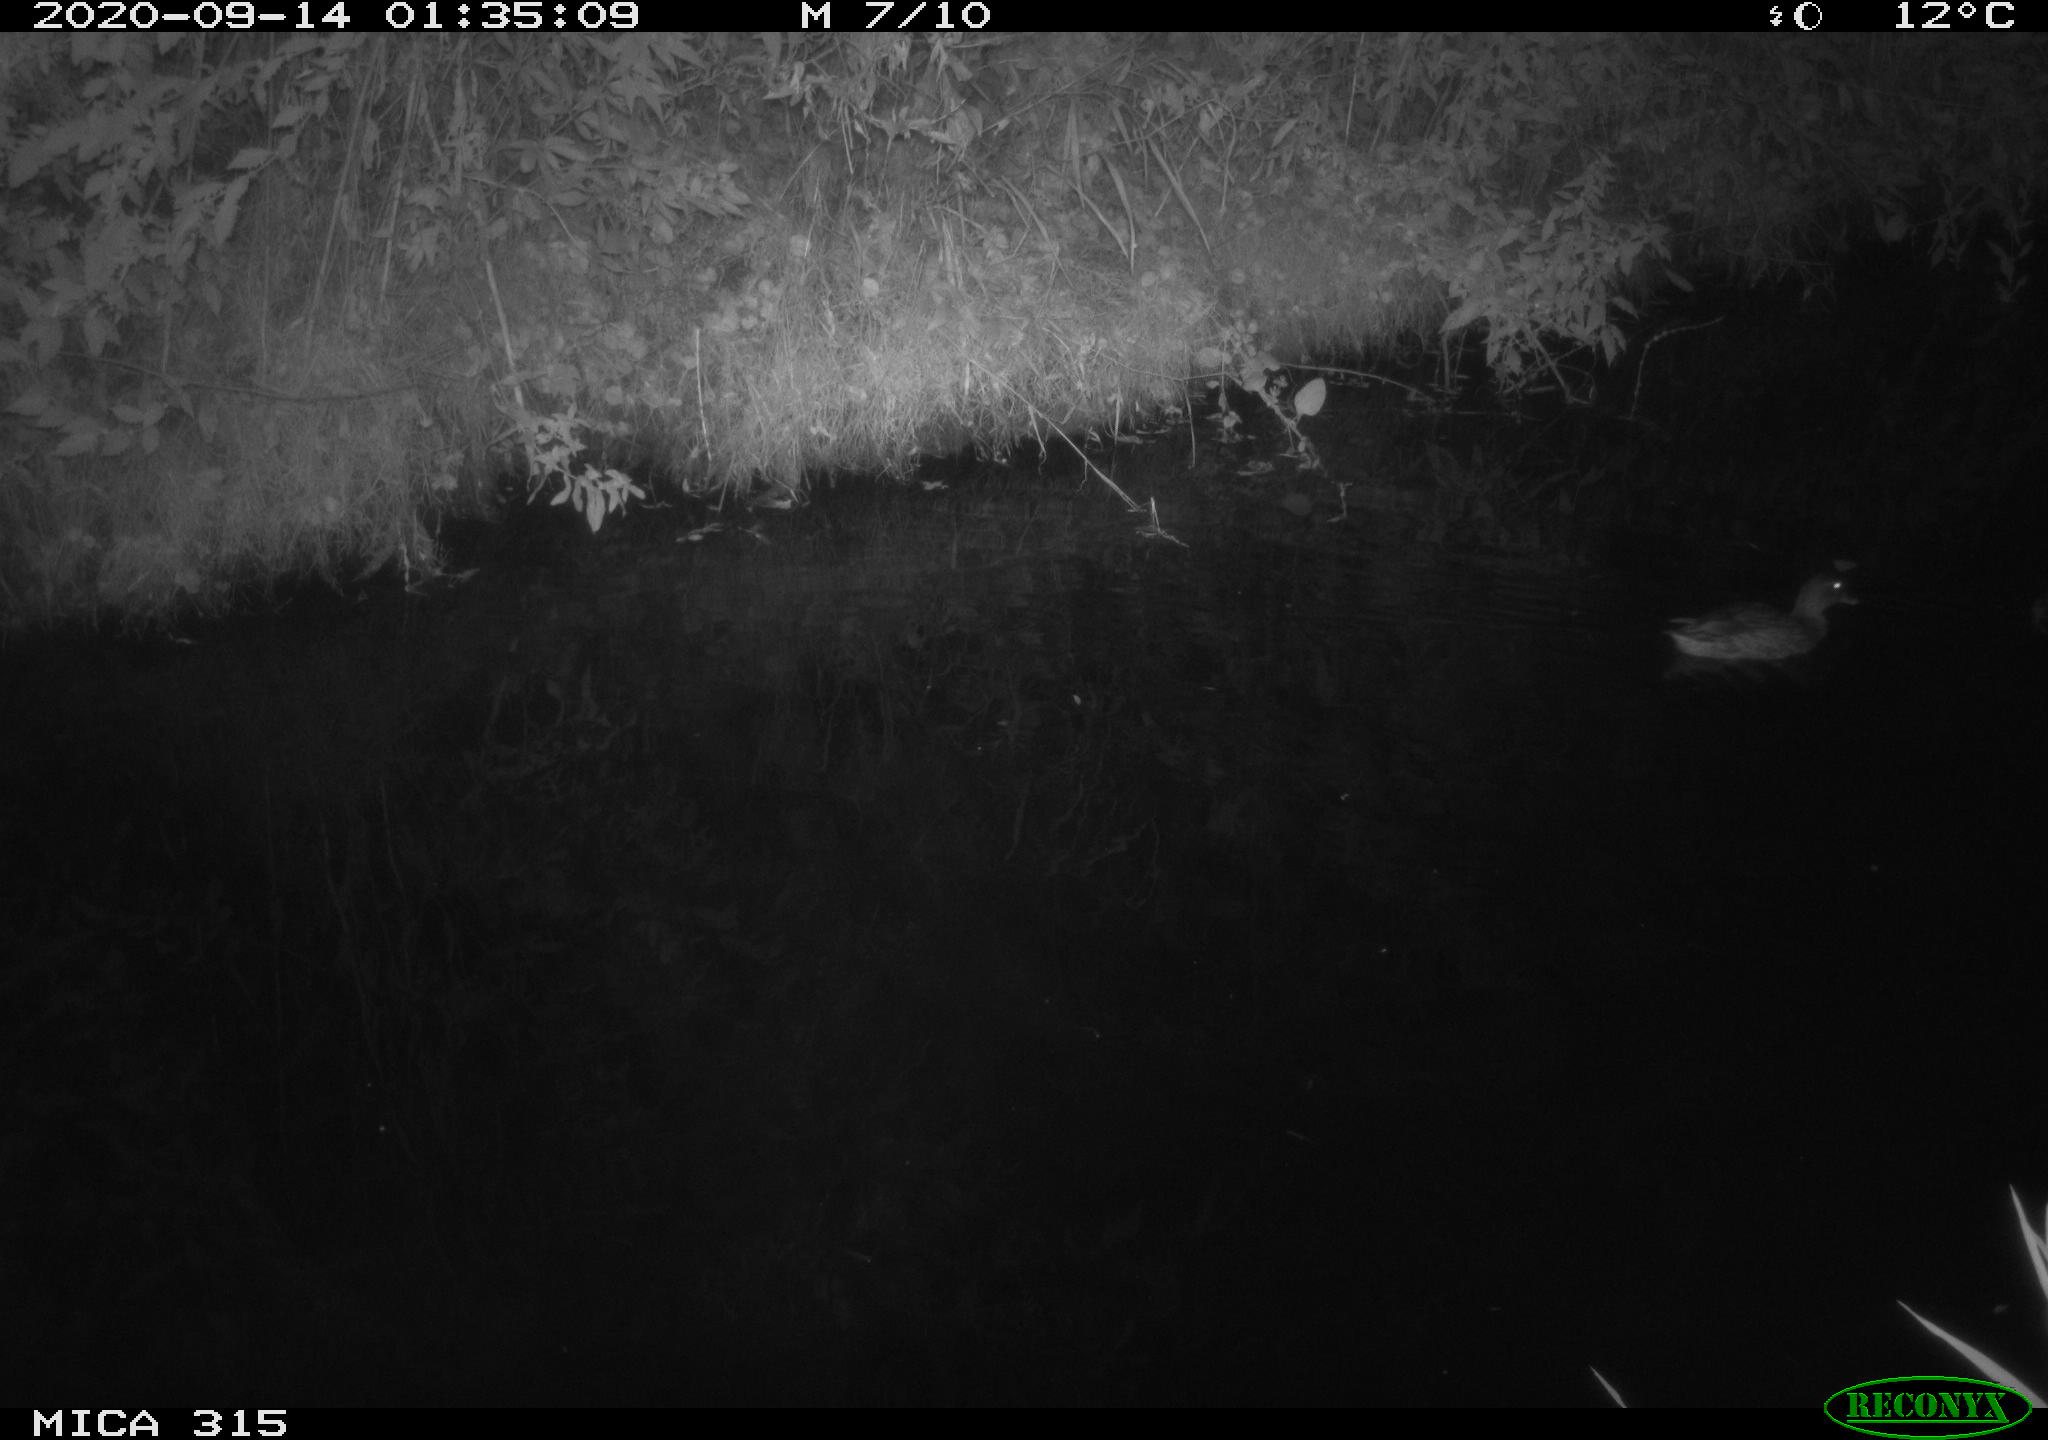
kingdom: Animalia
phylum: Chordata
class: Aves
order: Anseriformes
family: Anatidae
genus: Anas
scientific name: Anas platyrhynchos
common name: Mallard
